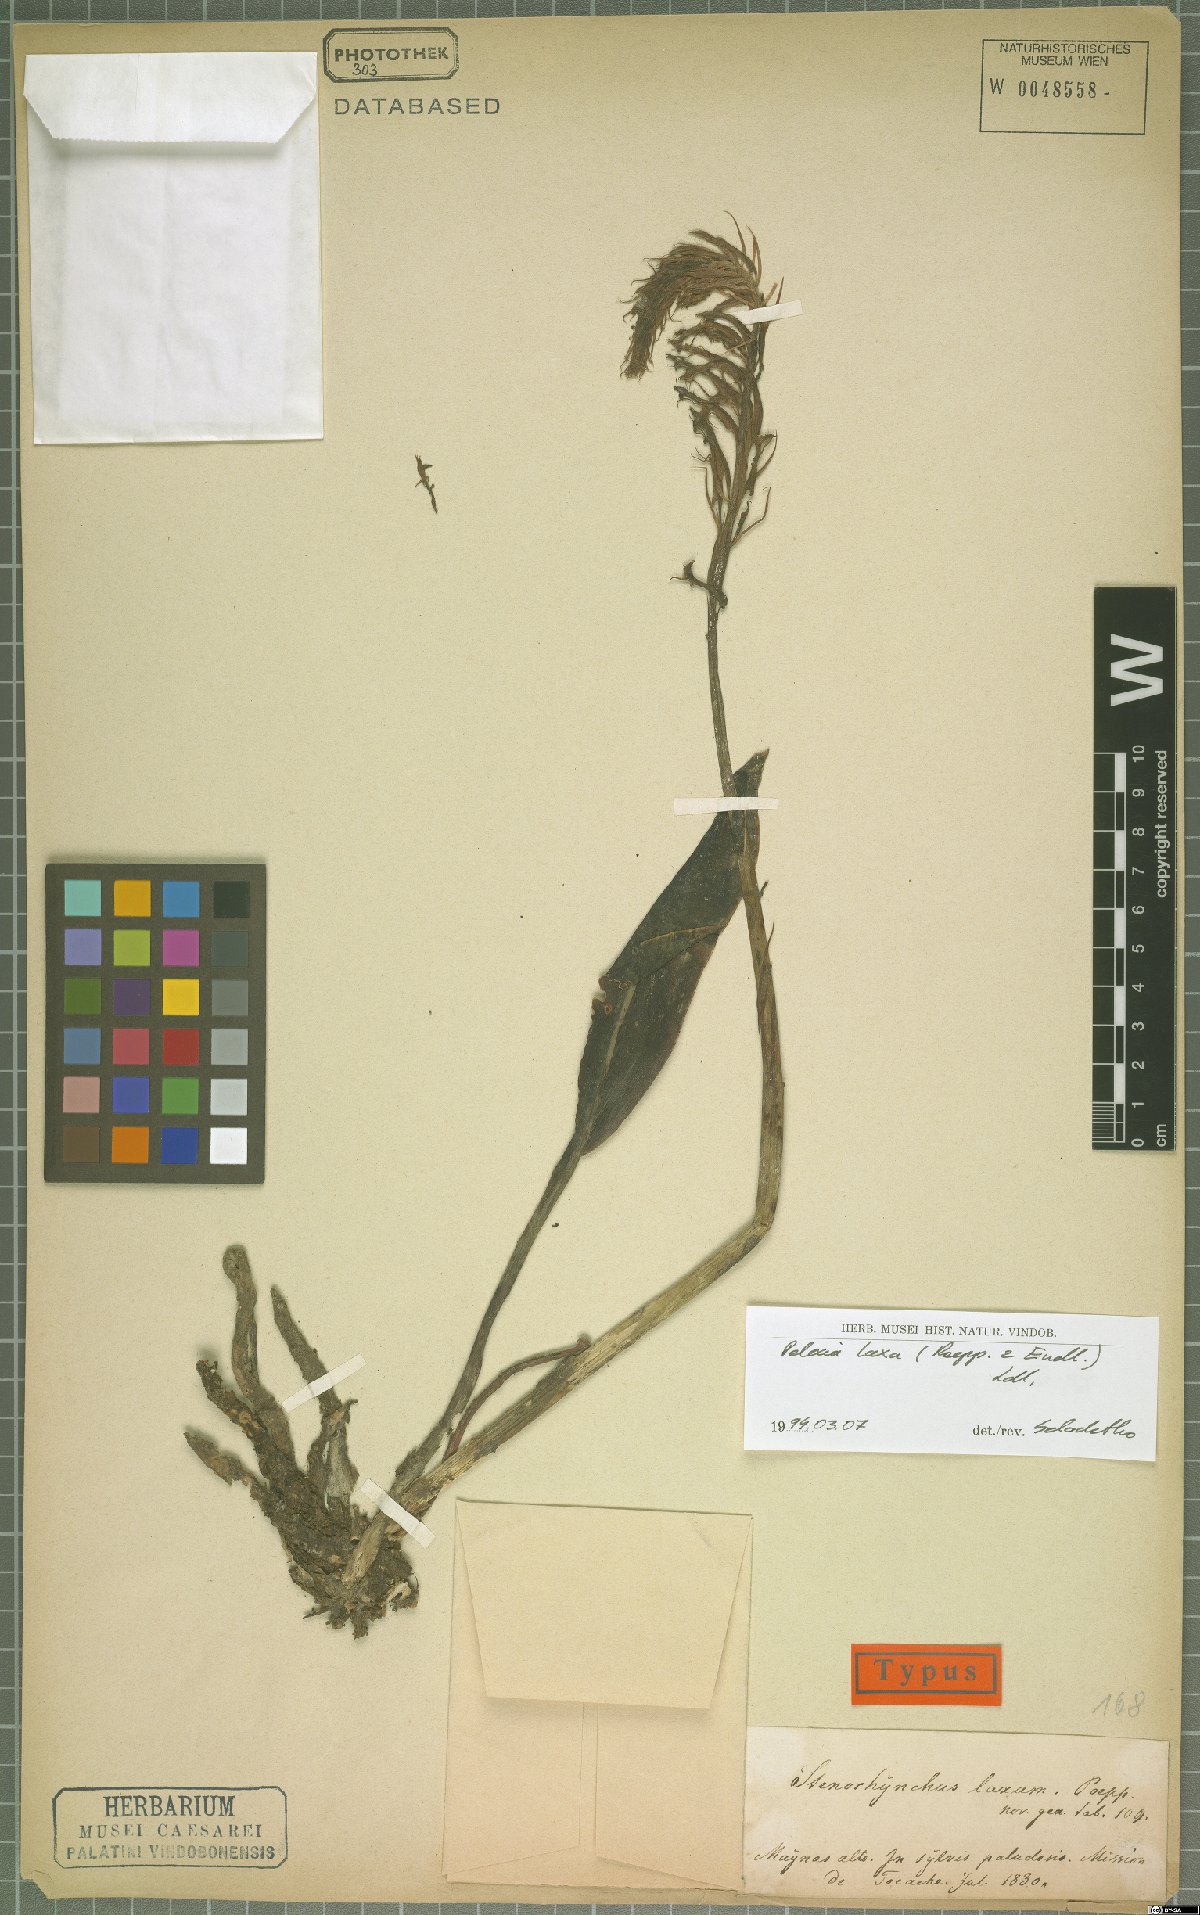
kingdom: Plantae
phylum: Tracheophyta
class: Liliopsida
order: Asparagales
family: Orchidaceae
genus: Pelexia
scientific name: Pelexia laxa
